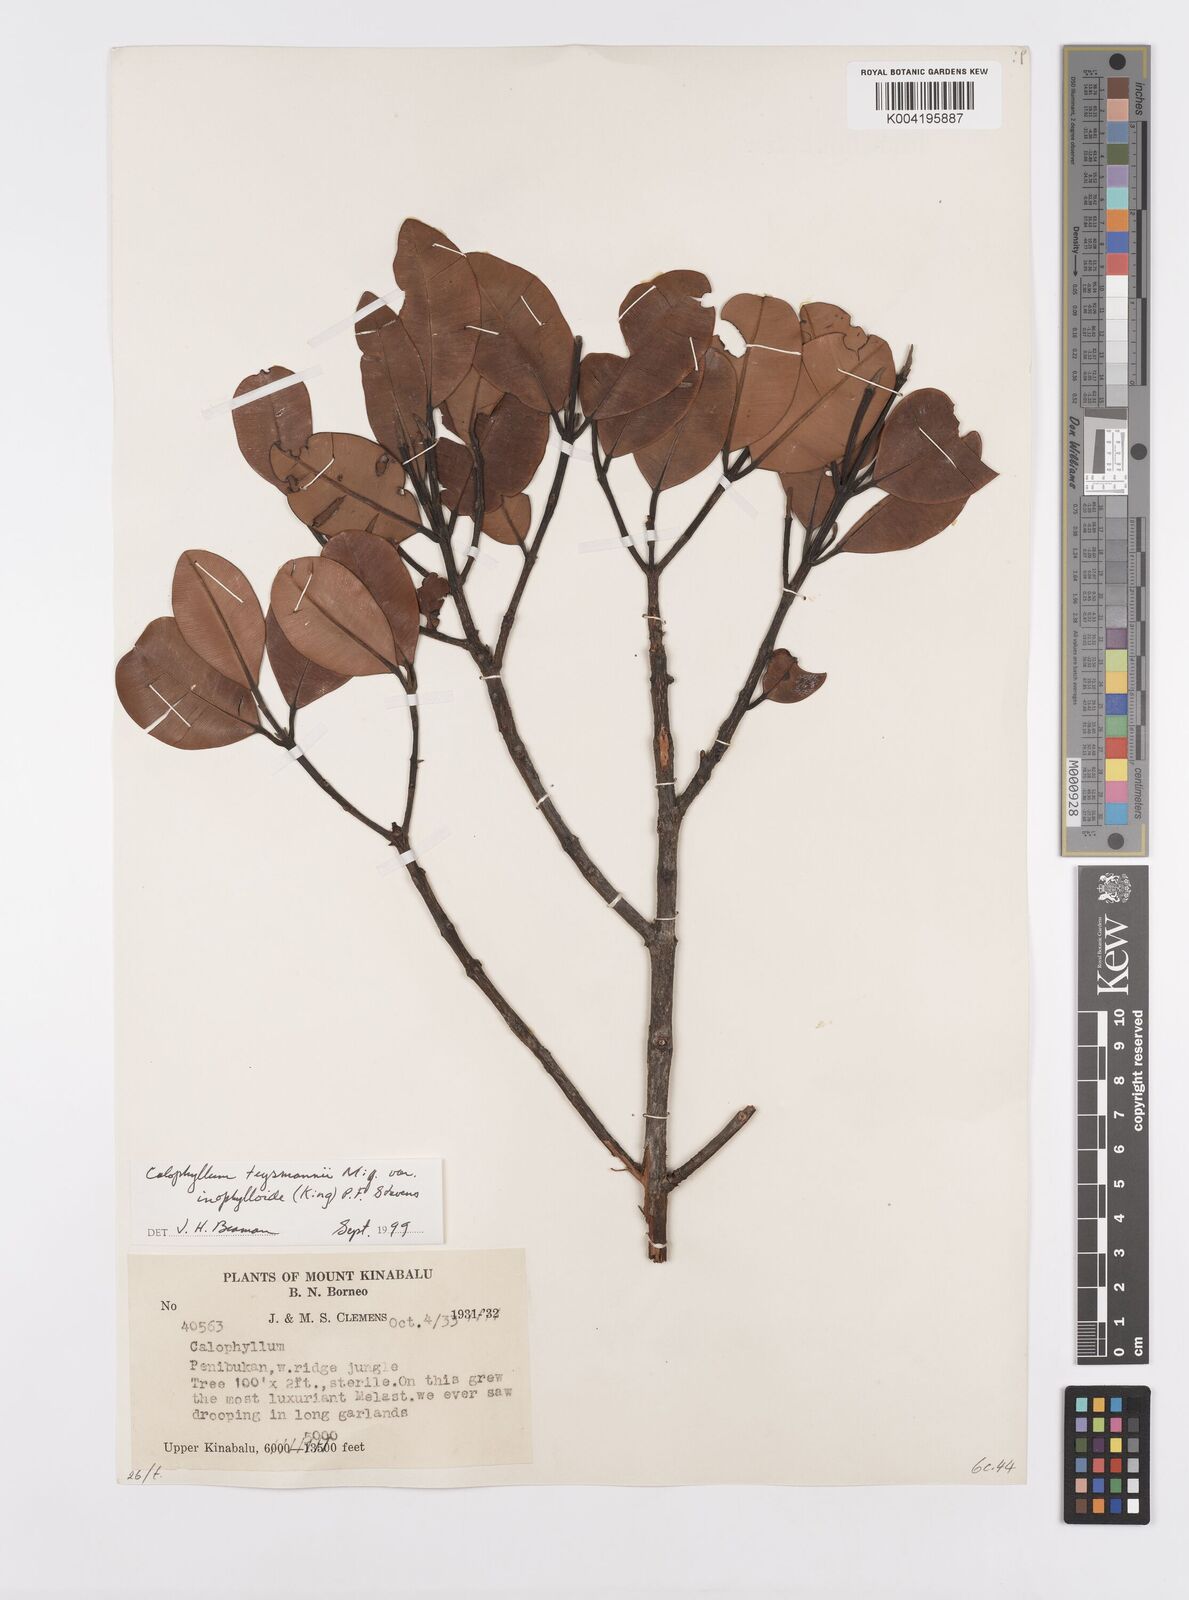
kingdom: Plantae
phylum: Tracheophyta
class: Magnoliopsida
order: Malpighiales
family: Calophyllaceae
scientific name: Calophyllaceae
